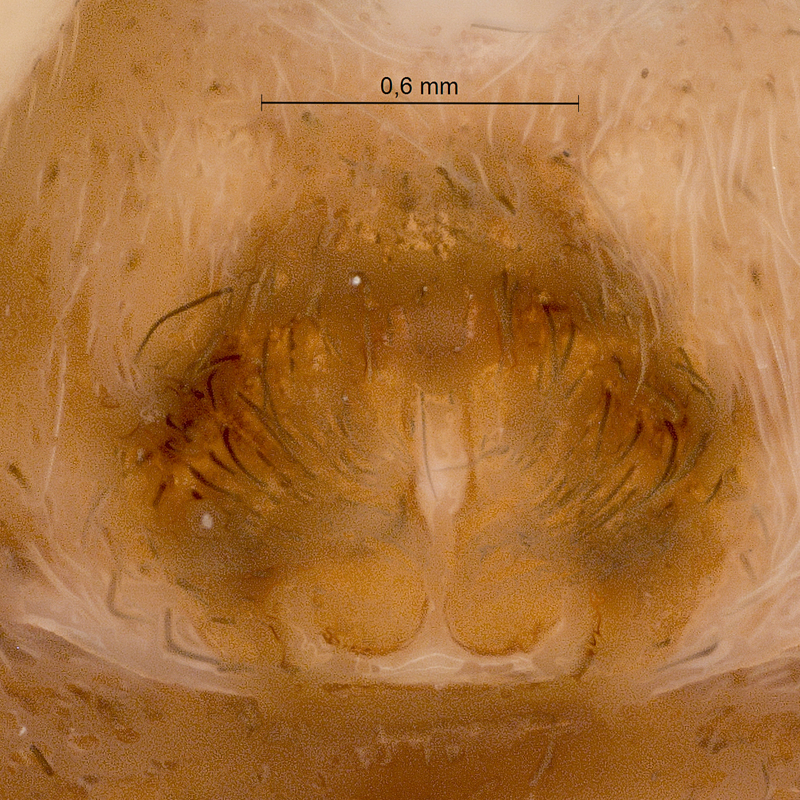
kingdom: Animalia
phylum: Arthropoda
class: Arachnida
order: Araneae
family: Lycosidae
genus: Pardosa
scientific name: Pardosa lugubris
